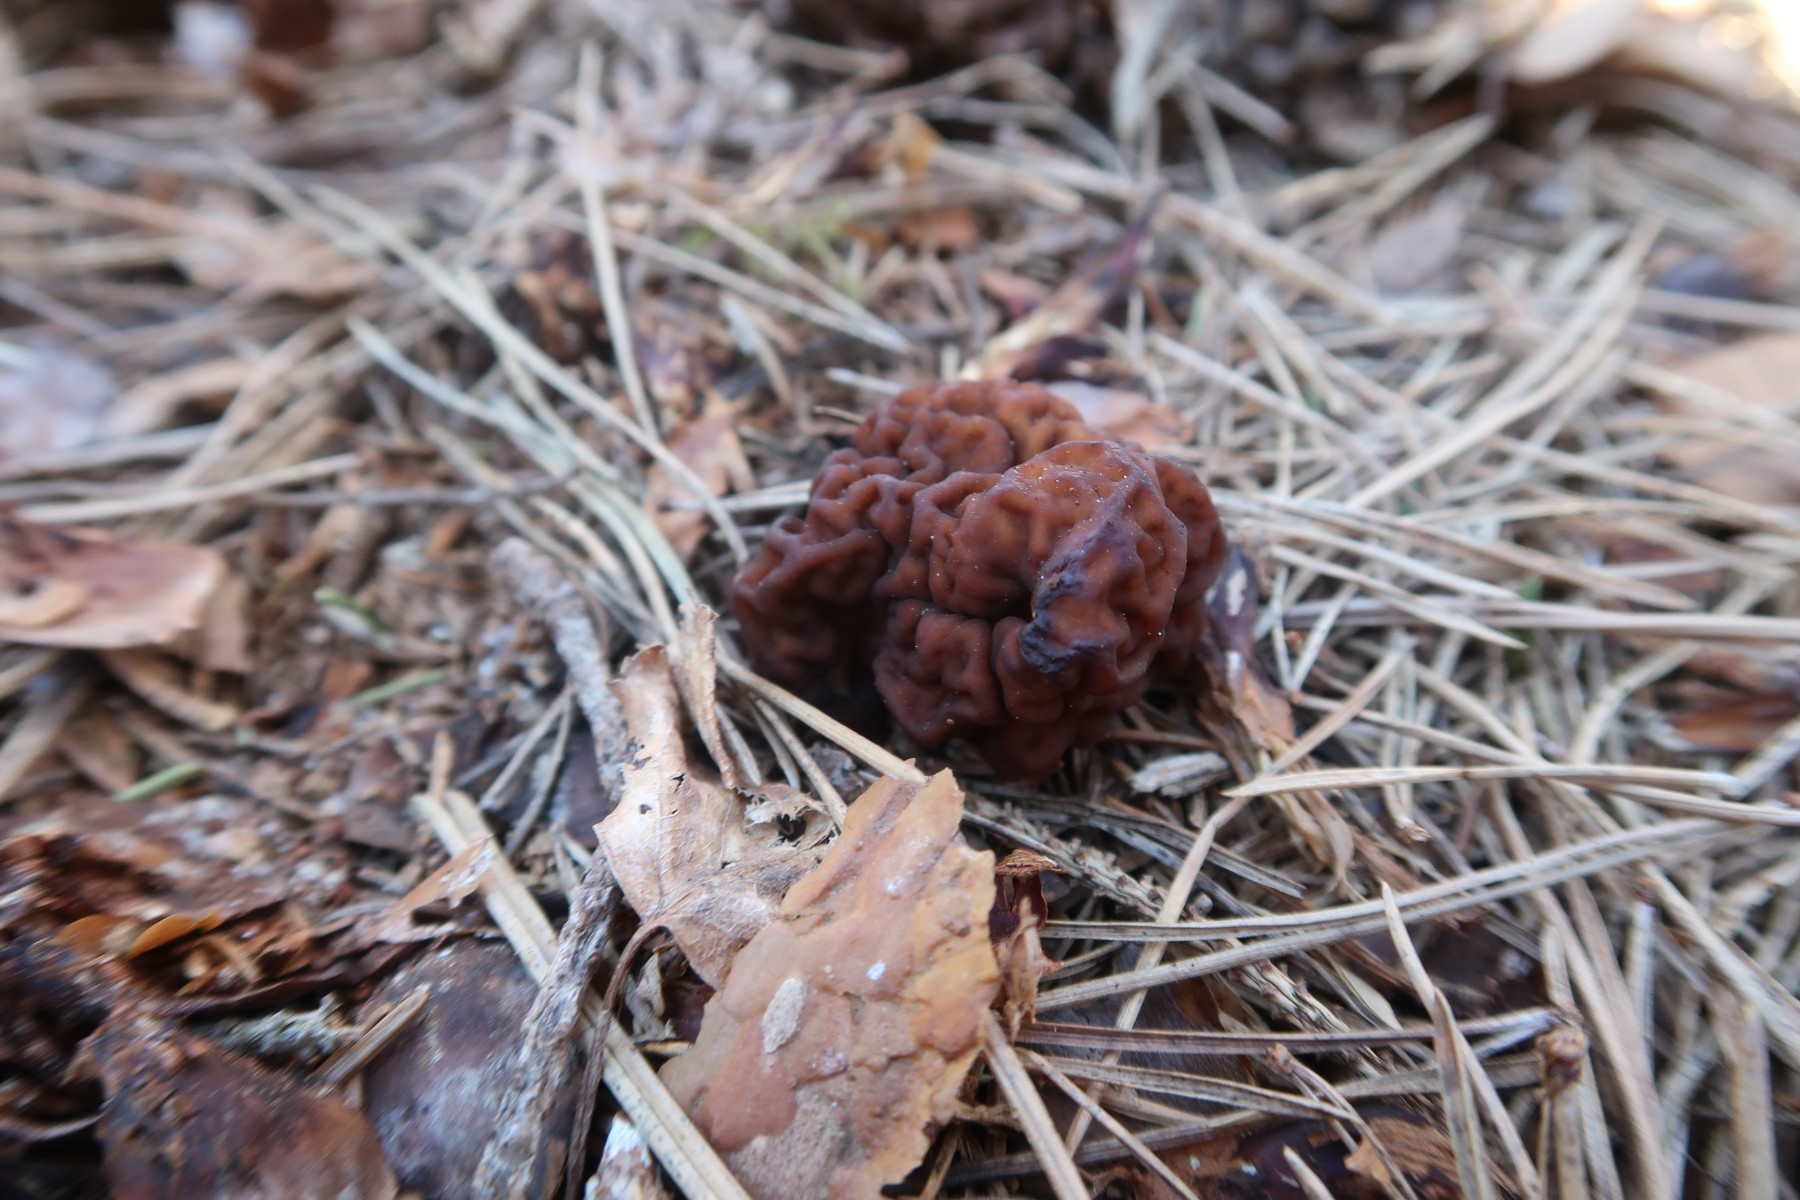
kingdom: Fungi
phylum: Ascomycota
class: Pezizomycetes
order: Pezizales
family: Discinaceae
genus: Gyromitra
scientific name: Gyromitra esculenta
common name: ægte stenmorkel
